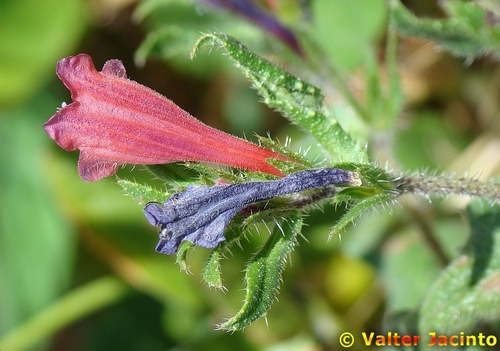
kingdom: Plantae
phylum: Tracheophyta
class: Magnoliopsida
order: Boraginales
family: Boraginaceae
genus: Echium
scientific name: Echium rosulatum
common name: Lax viper's-bugloss
